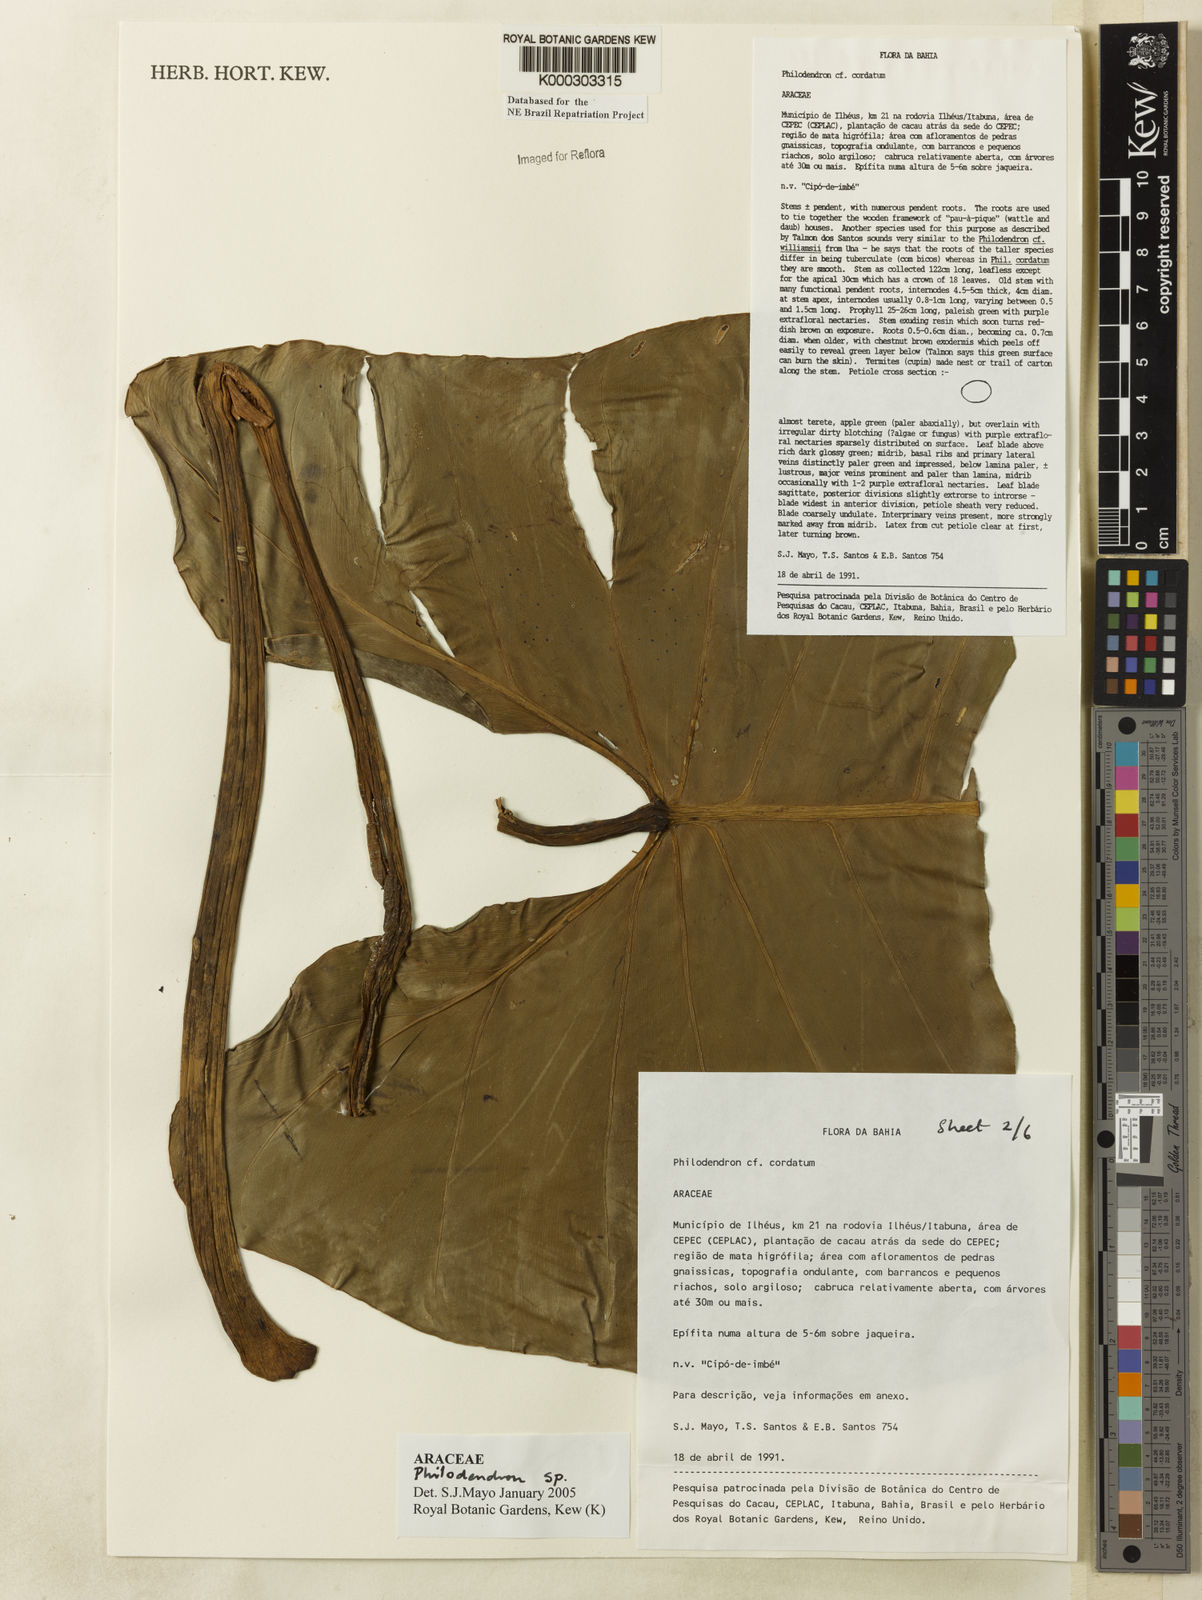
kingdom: Plantae
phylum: Tracheophyta
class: Liliopsida
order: Alismatales
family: Araceae
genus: Philodendron
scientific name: Philodendron
